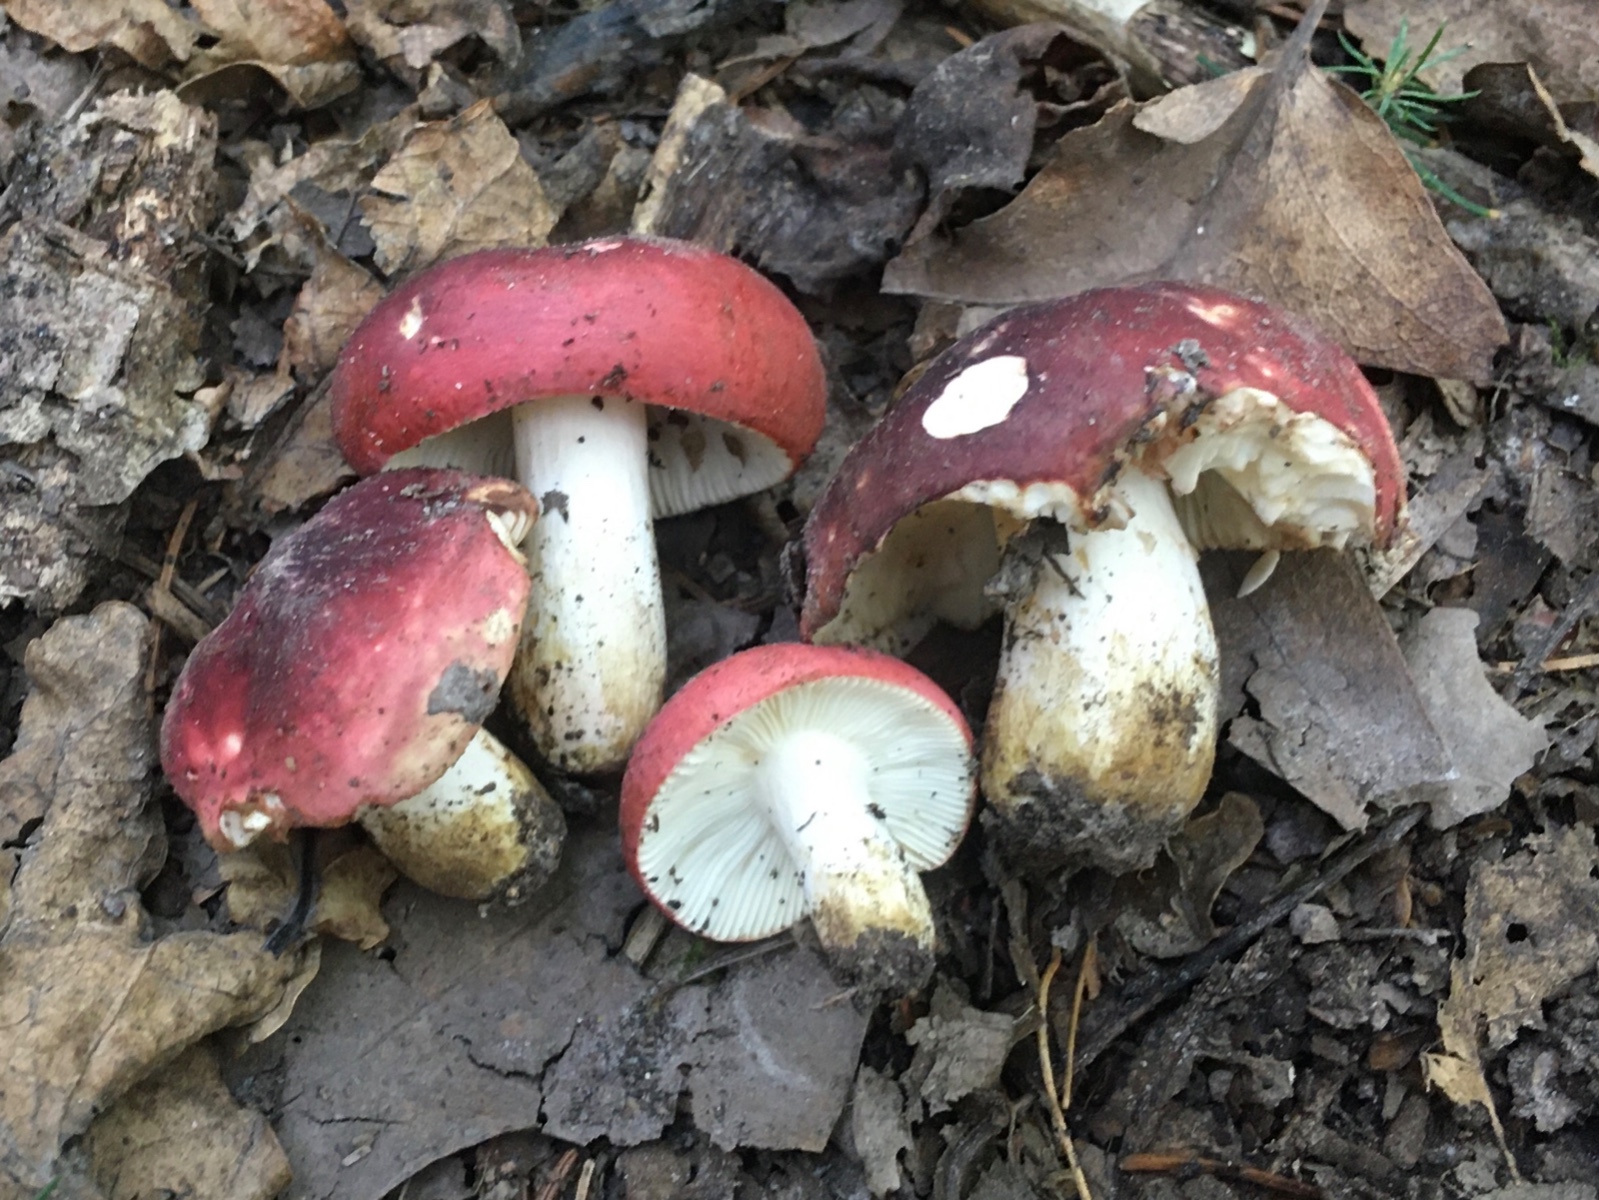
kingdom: Fungi
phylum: Basidiomycota
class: Agaricomycetes
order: Russulales
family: Russulaceae
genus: Russula
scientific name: Russula graveolens
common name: bugtet skørhat
